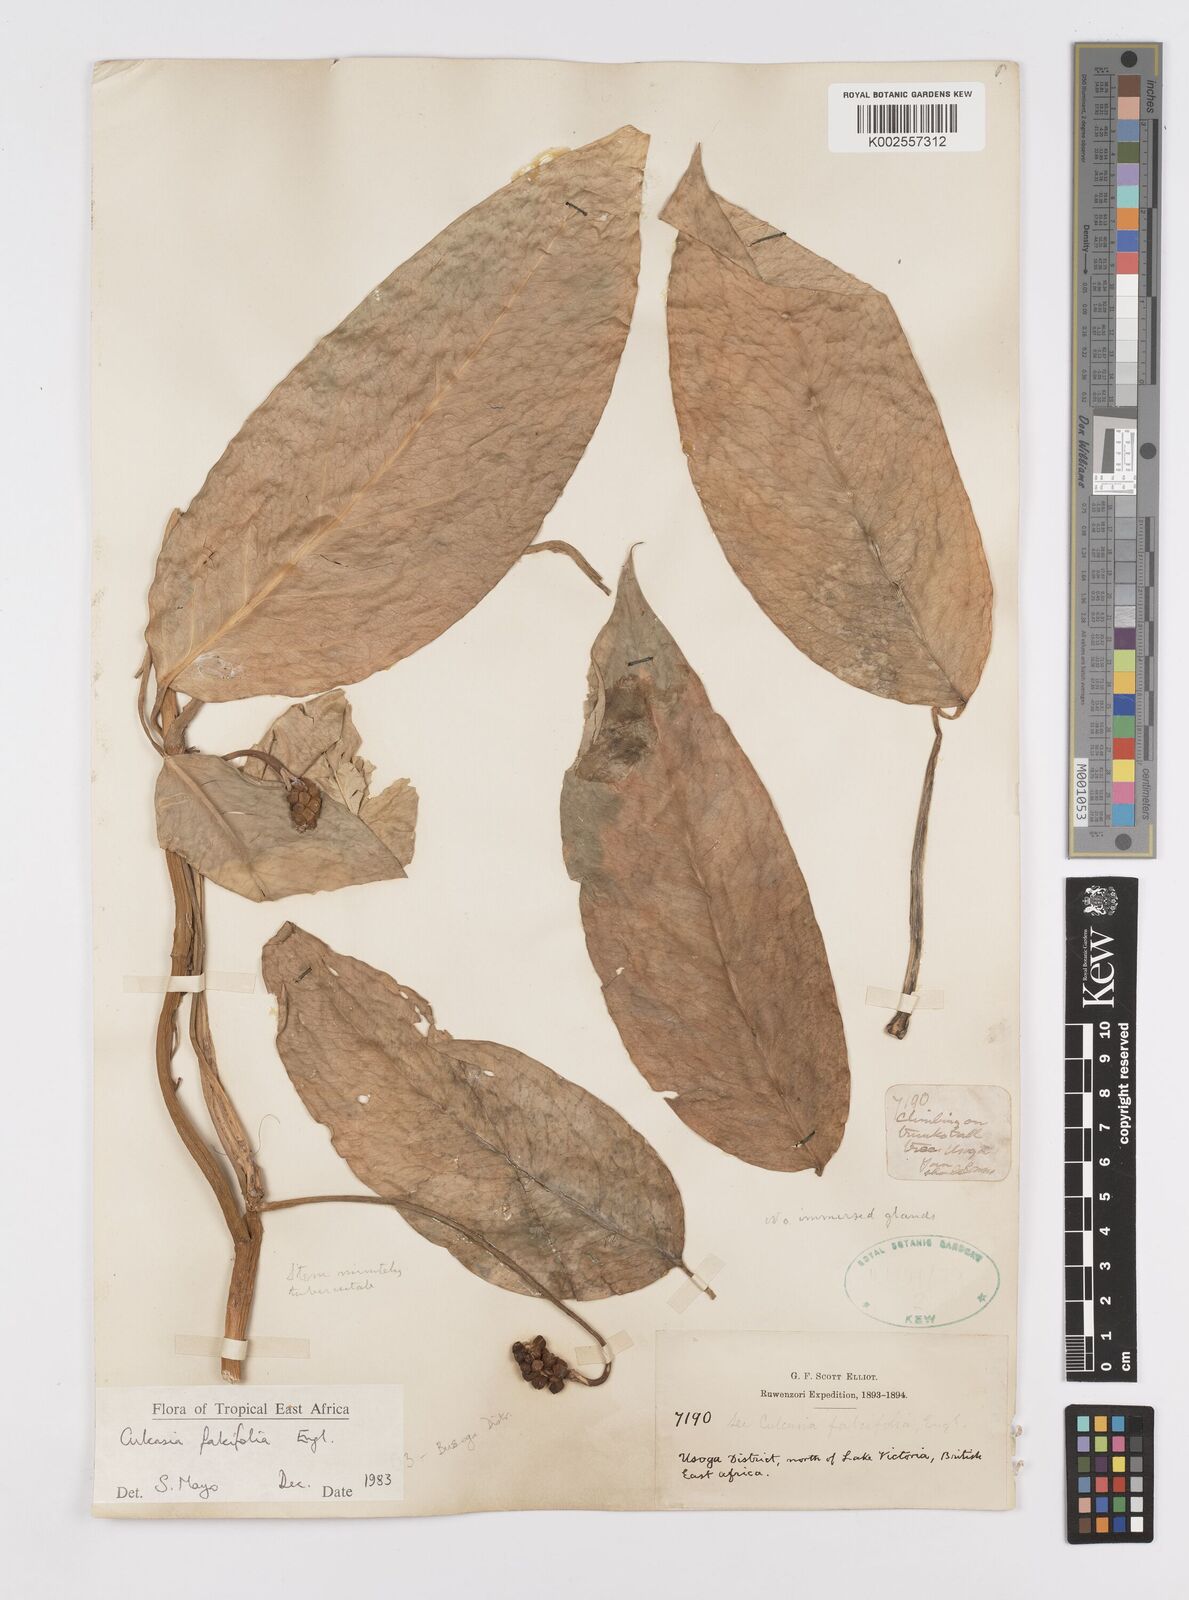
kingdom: Plantae
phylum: Tracheophyta
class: Liliopsida
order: Alismatales
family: Araceae
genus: Culcasia
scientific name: Culcasia falcifolia
